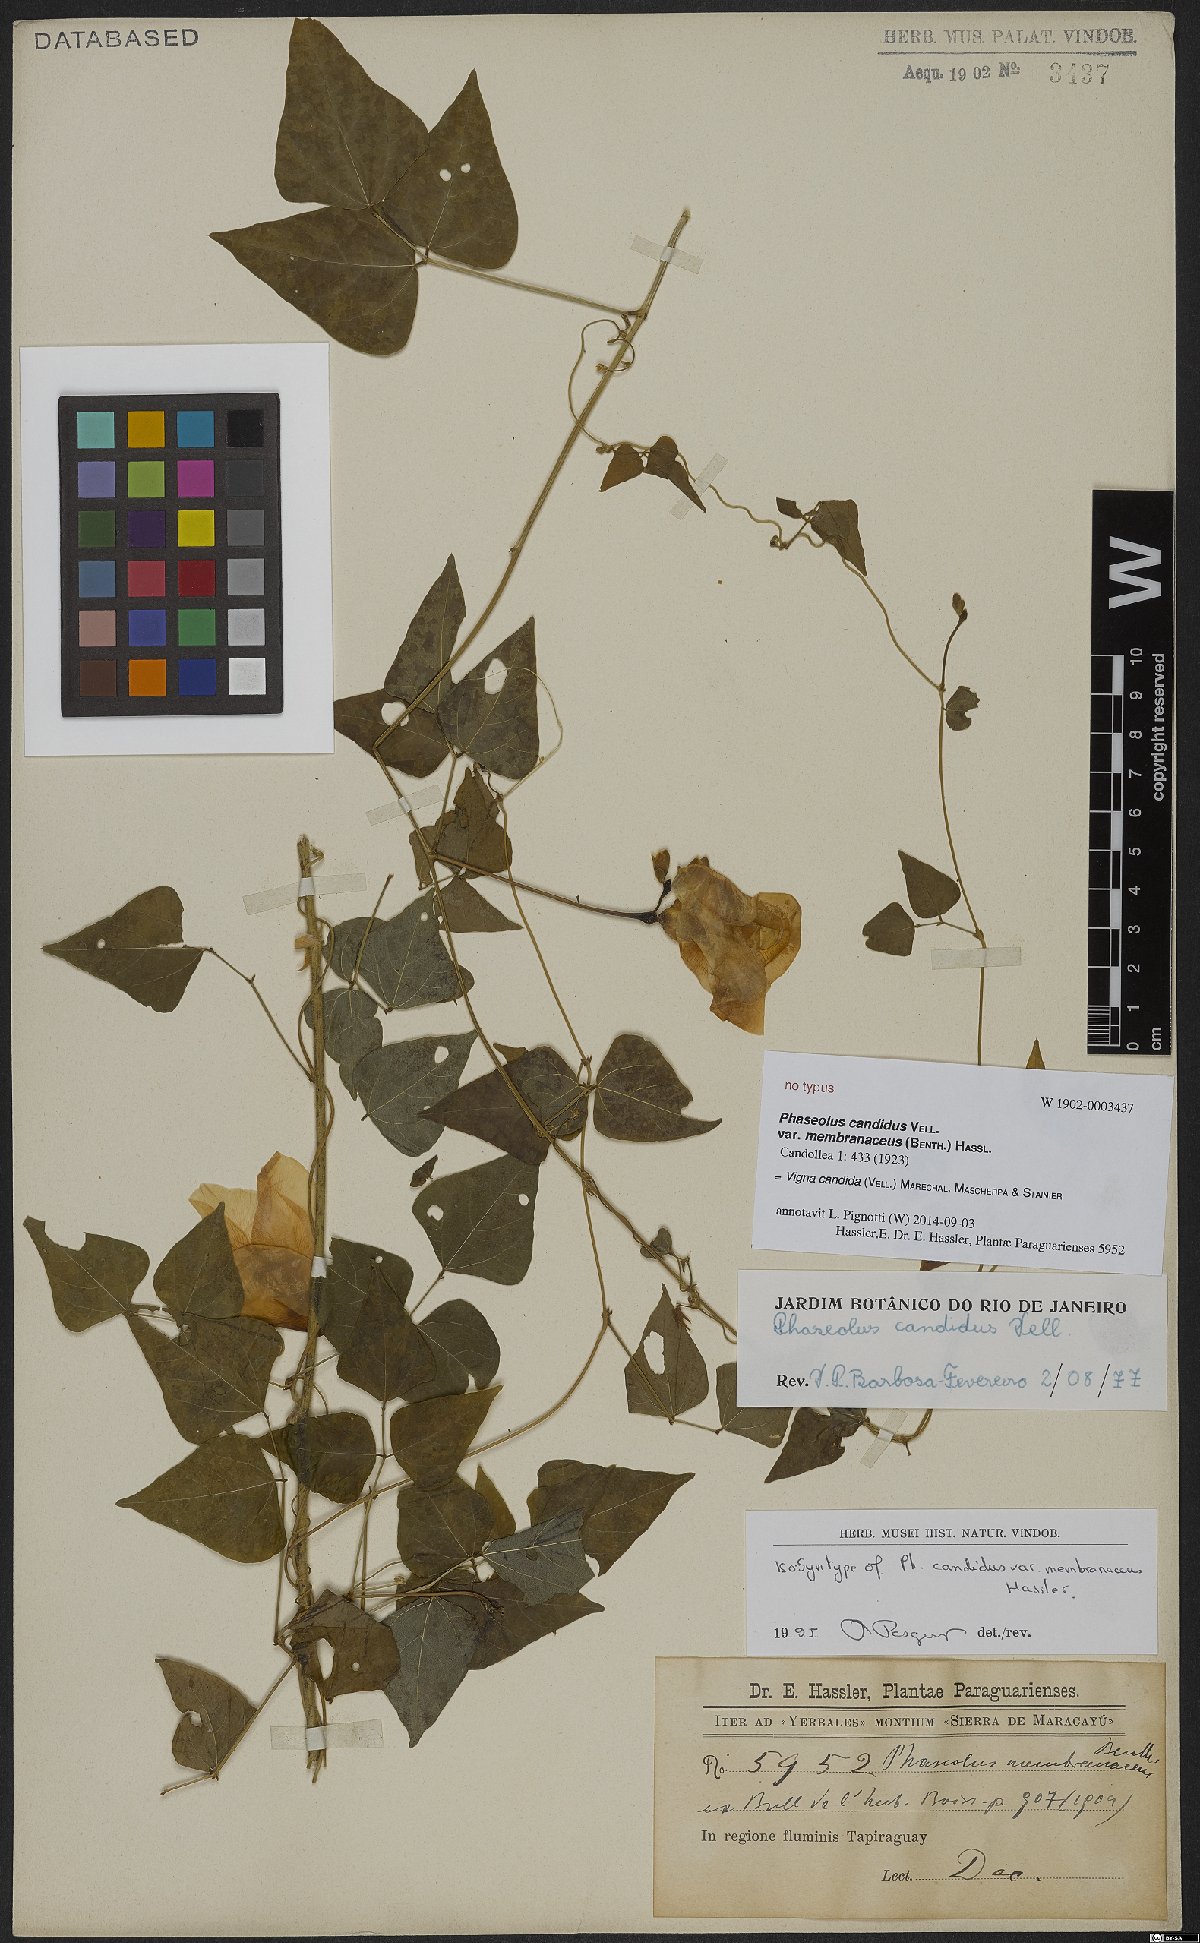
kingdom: Plantae
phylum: Tracheophyta
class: Magnoliopsida
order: Fabales
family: Fabaceae
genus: Condylostylis
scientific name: Condylostylis candida
